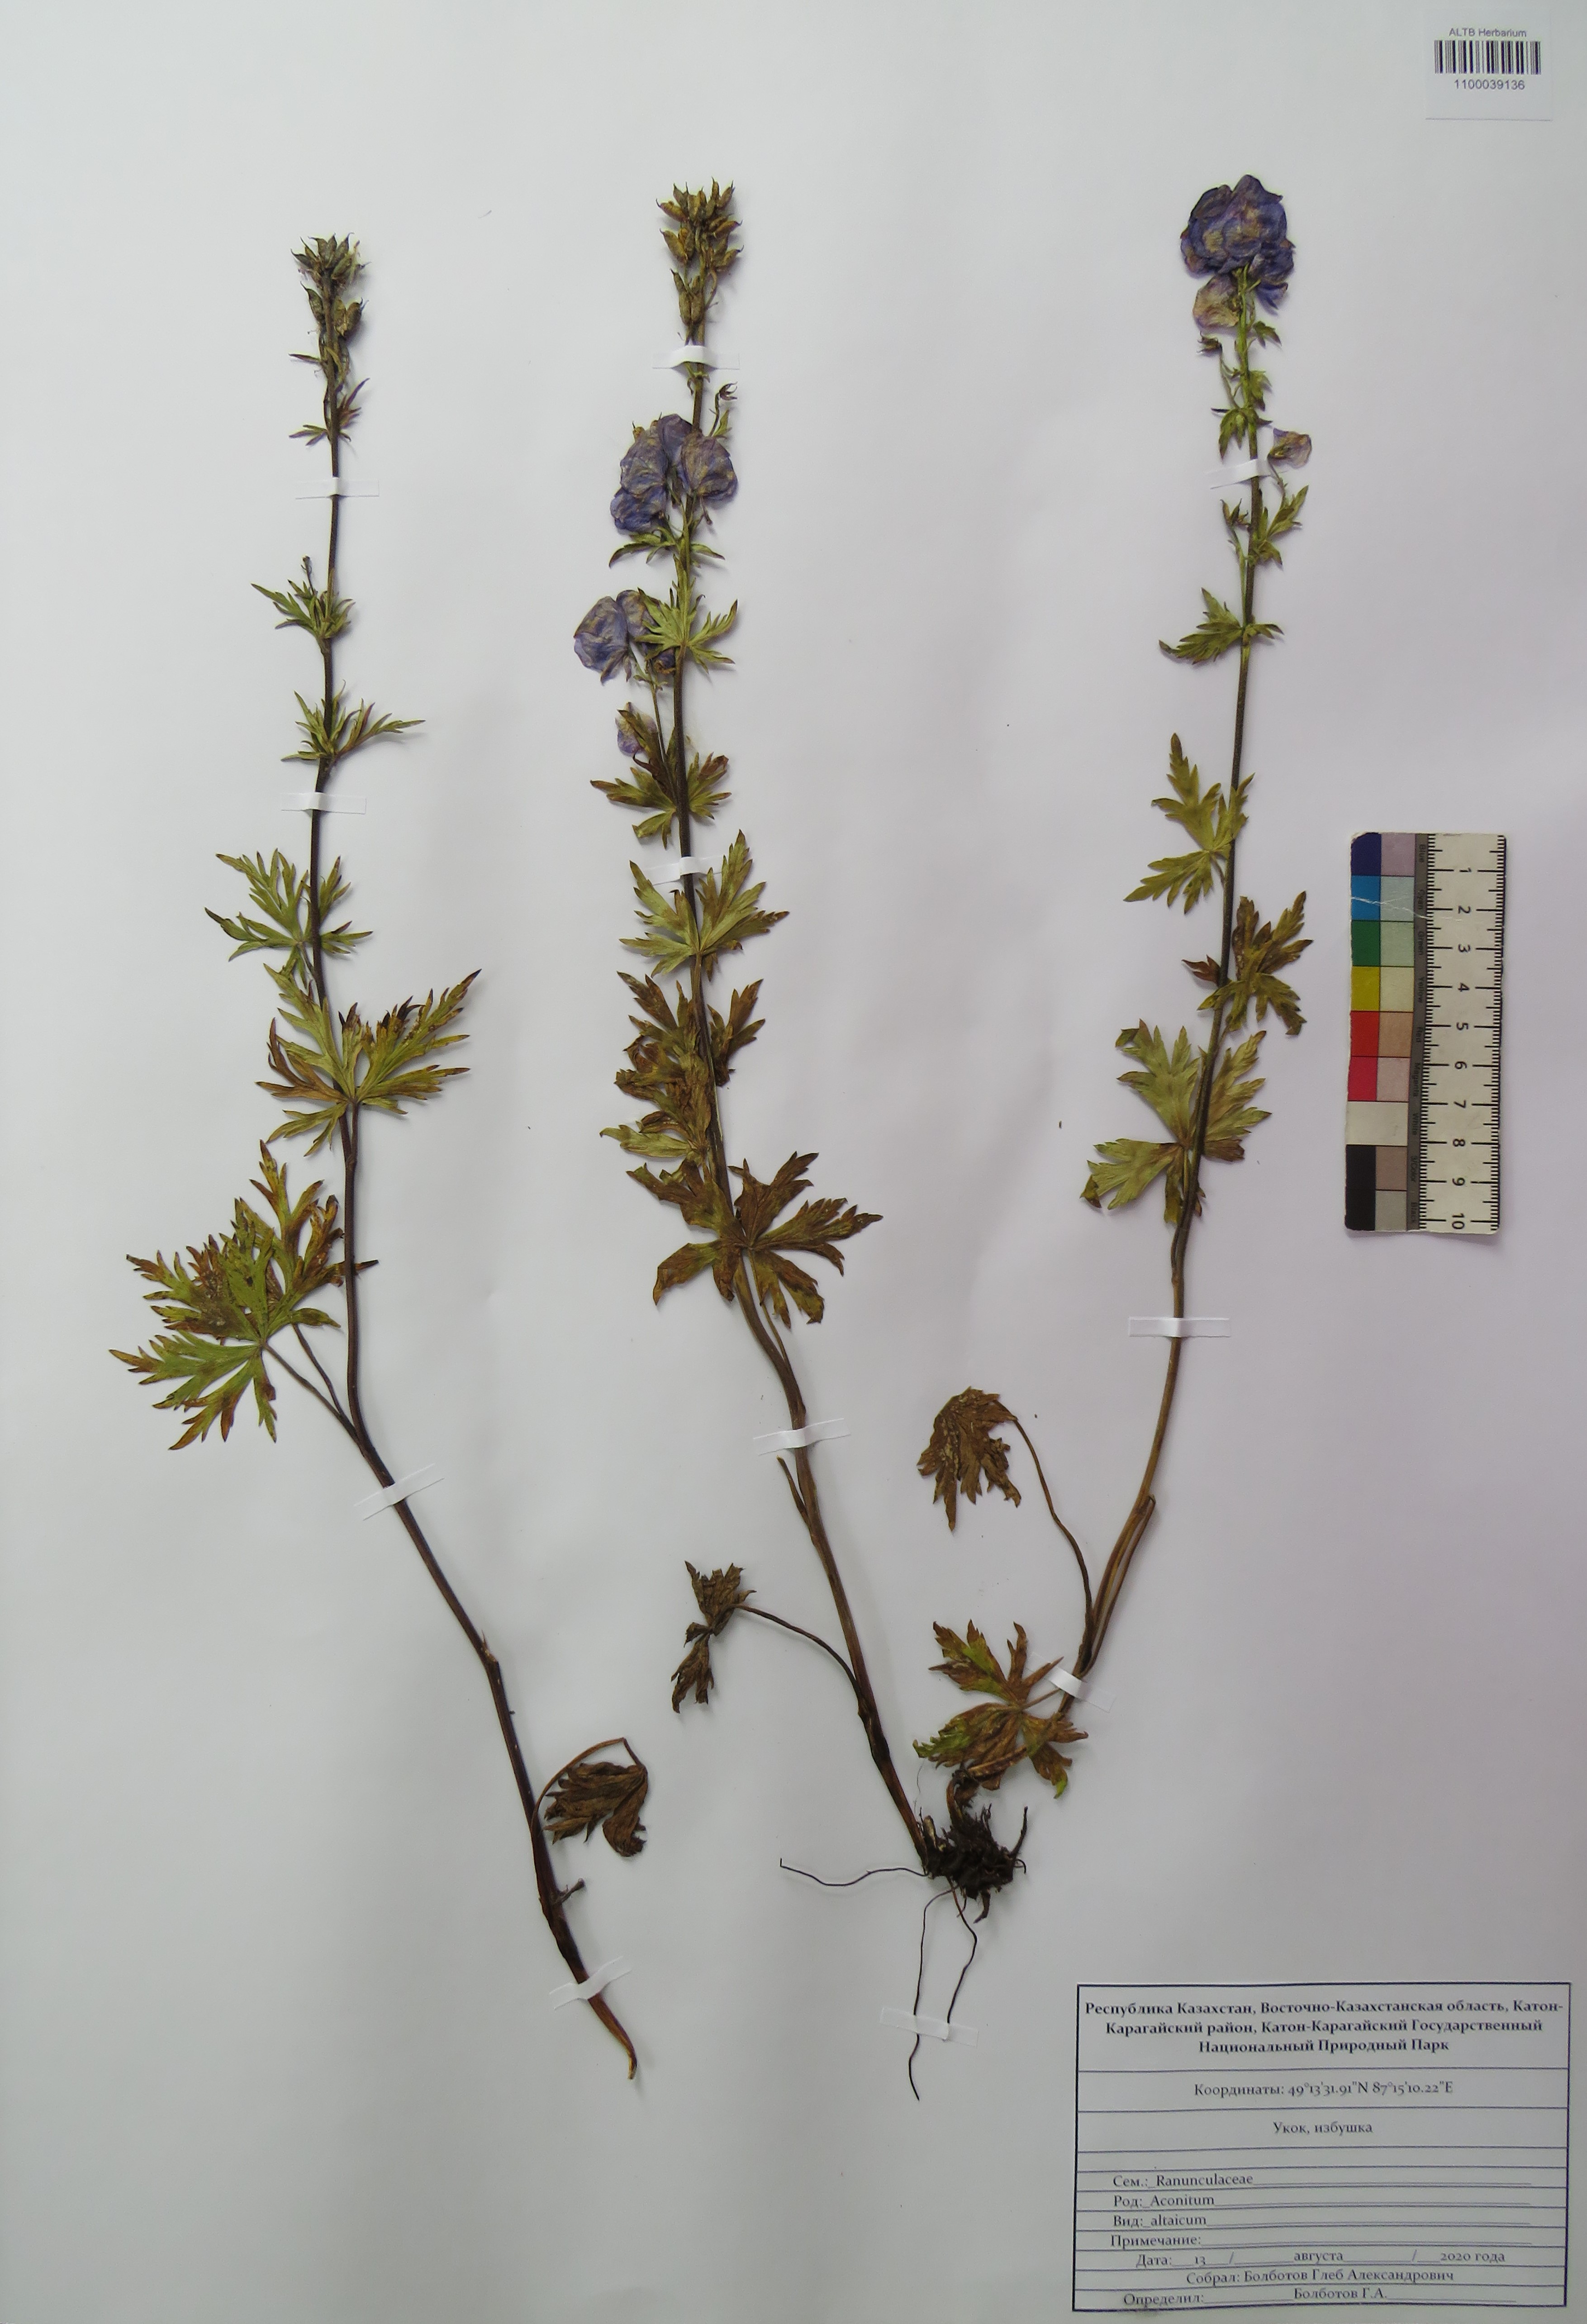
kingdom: Plantae
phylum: Tracheophyta
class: Magnoliopsida
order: Ranunculales
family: Ranunculaceae
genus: Aconitum
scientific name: Aconitum glandulosum
